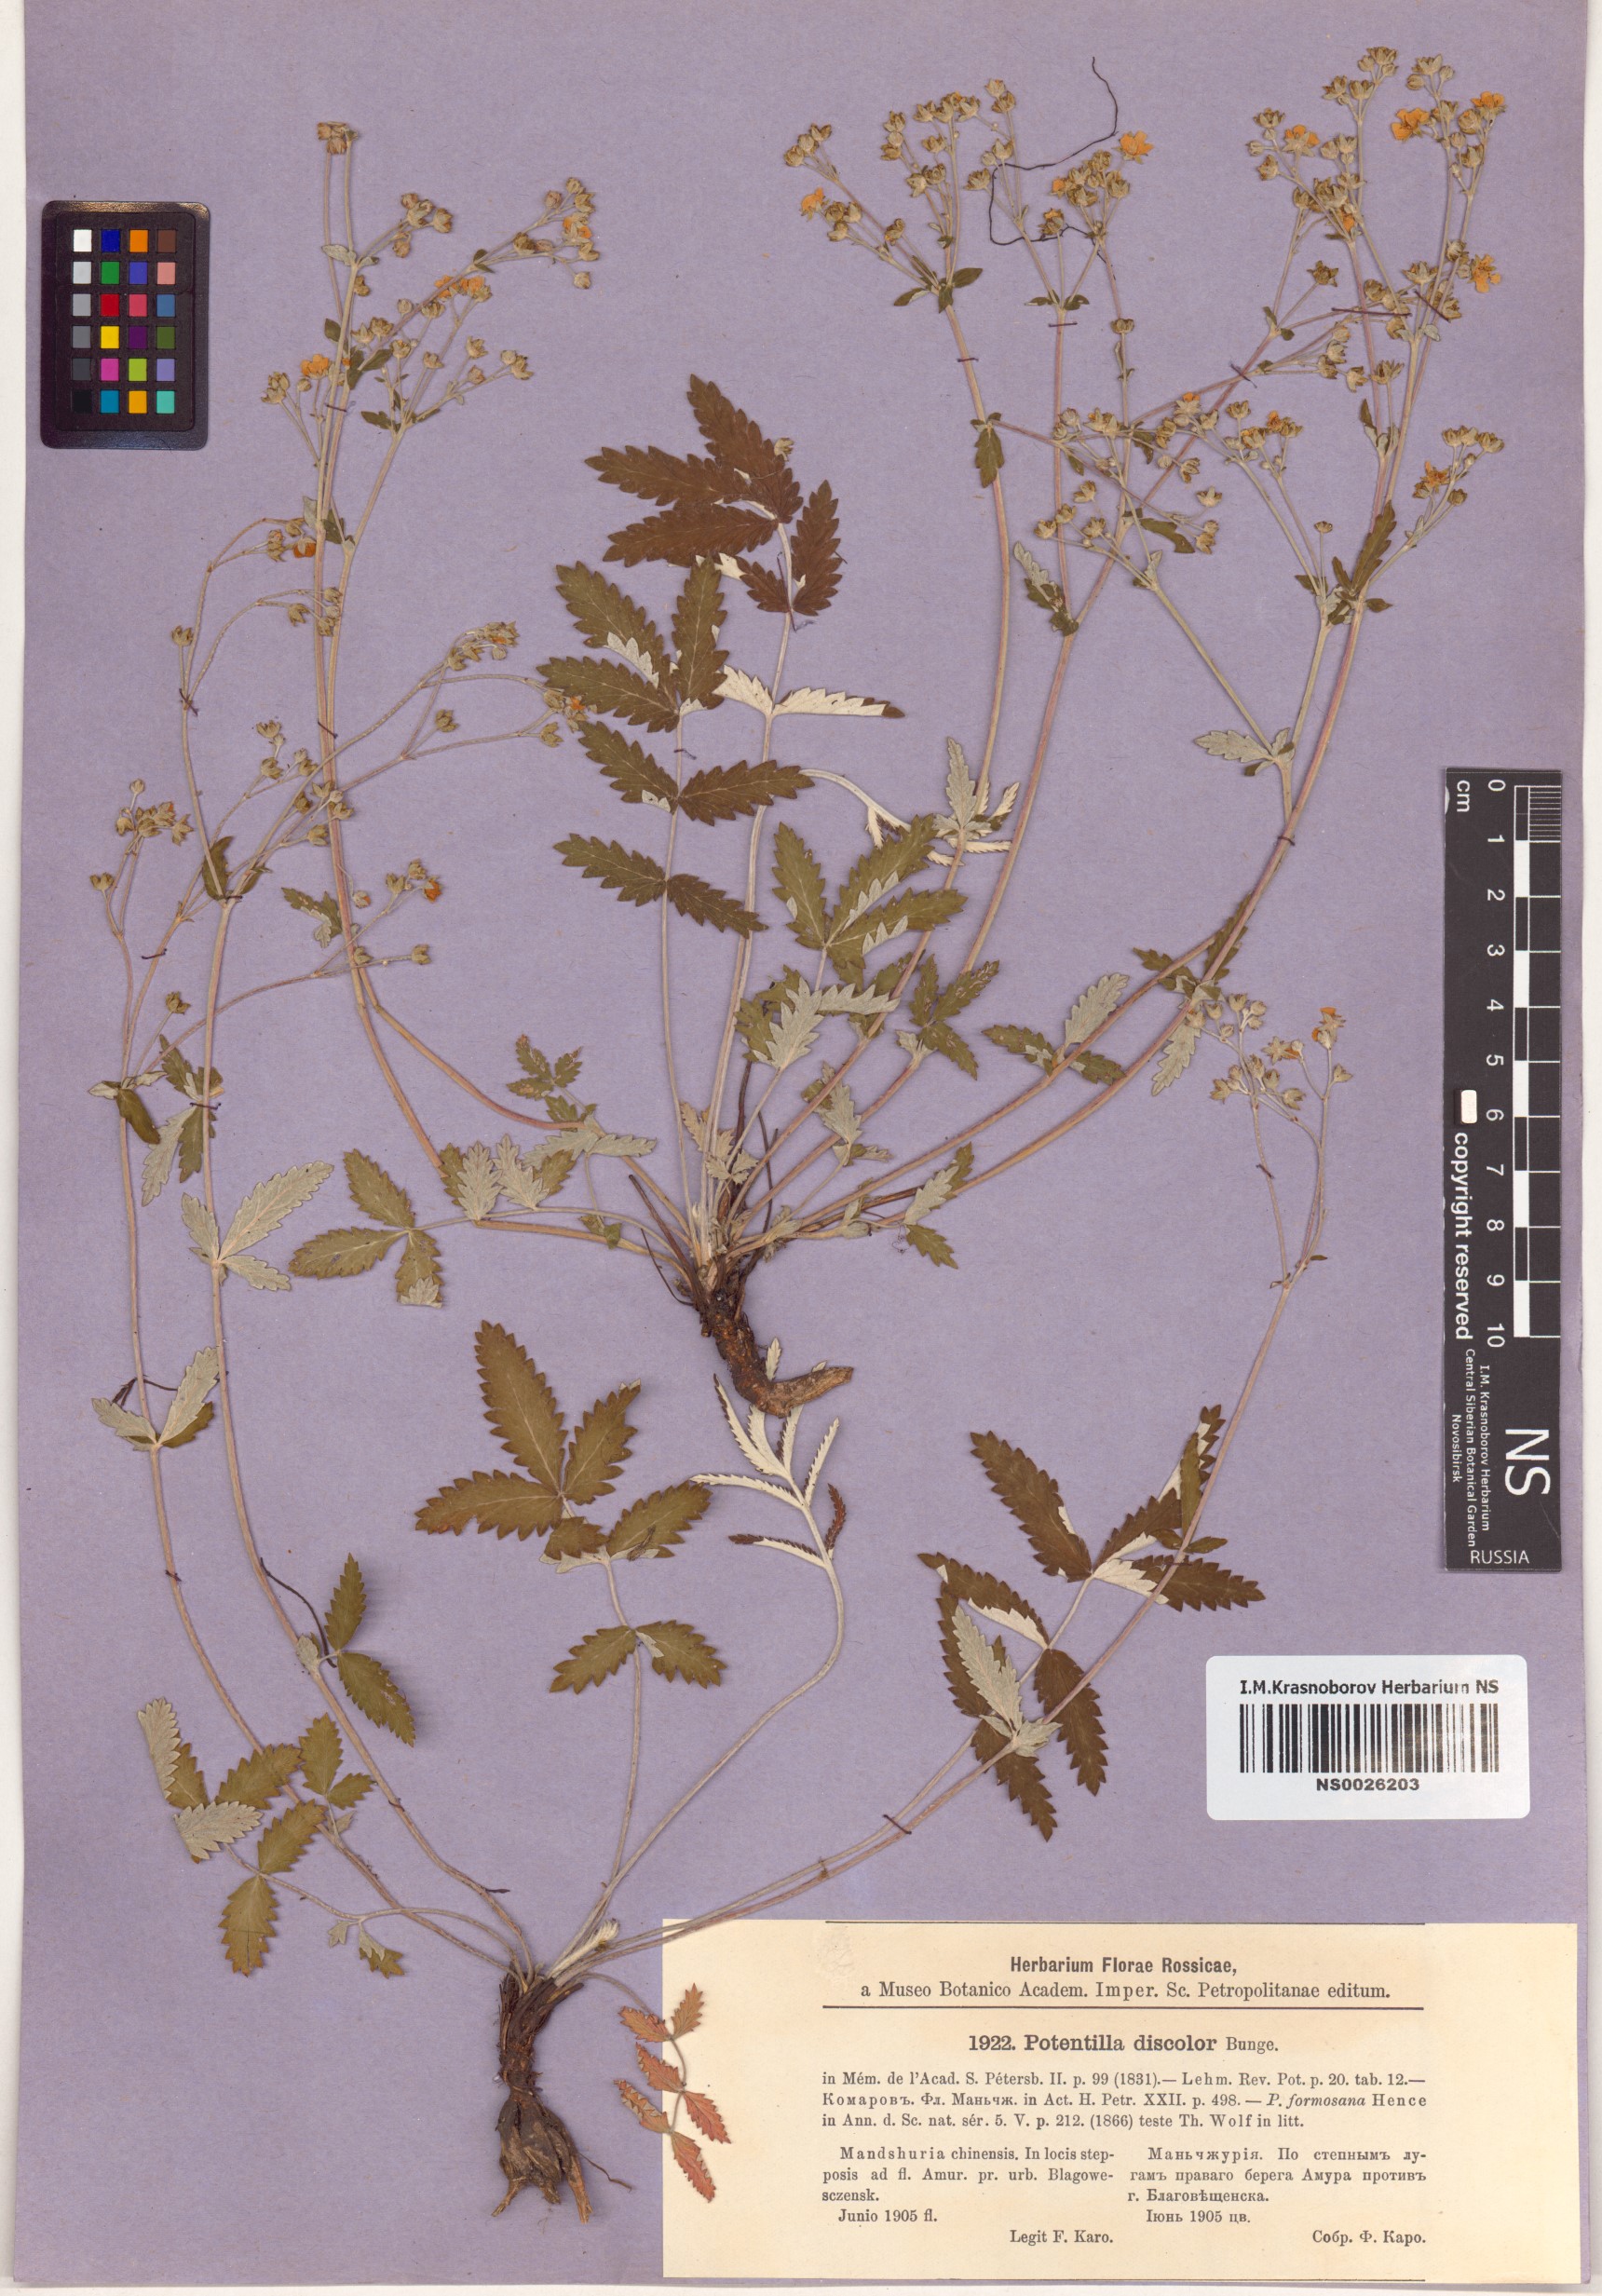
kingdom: Plantae
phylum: Tracheophyta
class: Magnoliopsida
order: Rosales
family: Rosaceae
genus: Potentilla
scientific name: Potentilla discolor
